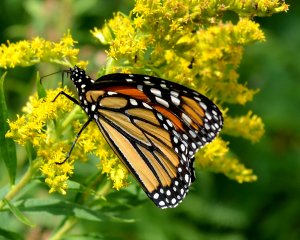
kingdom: Animalia
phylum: Arthropoda
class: Insecta
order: Lepidoptera
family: Nymphalidae
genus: Danaus
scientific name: Danaus plexippus
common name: Monarch
